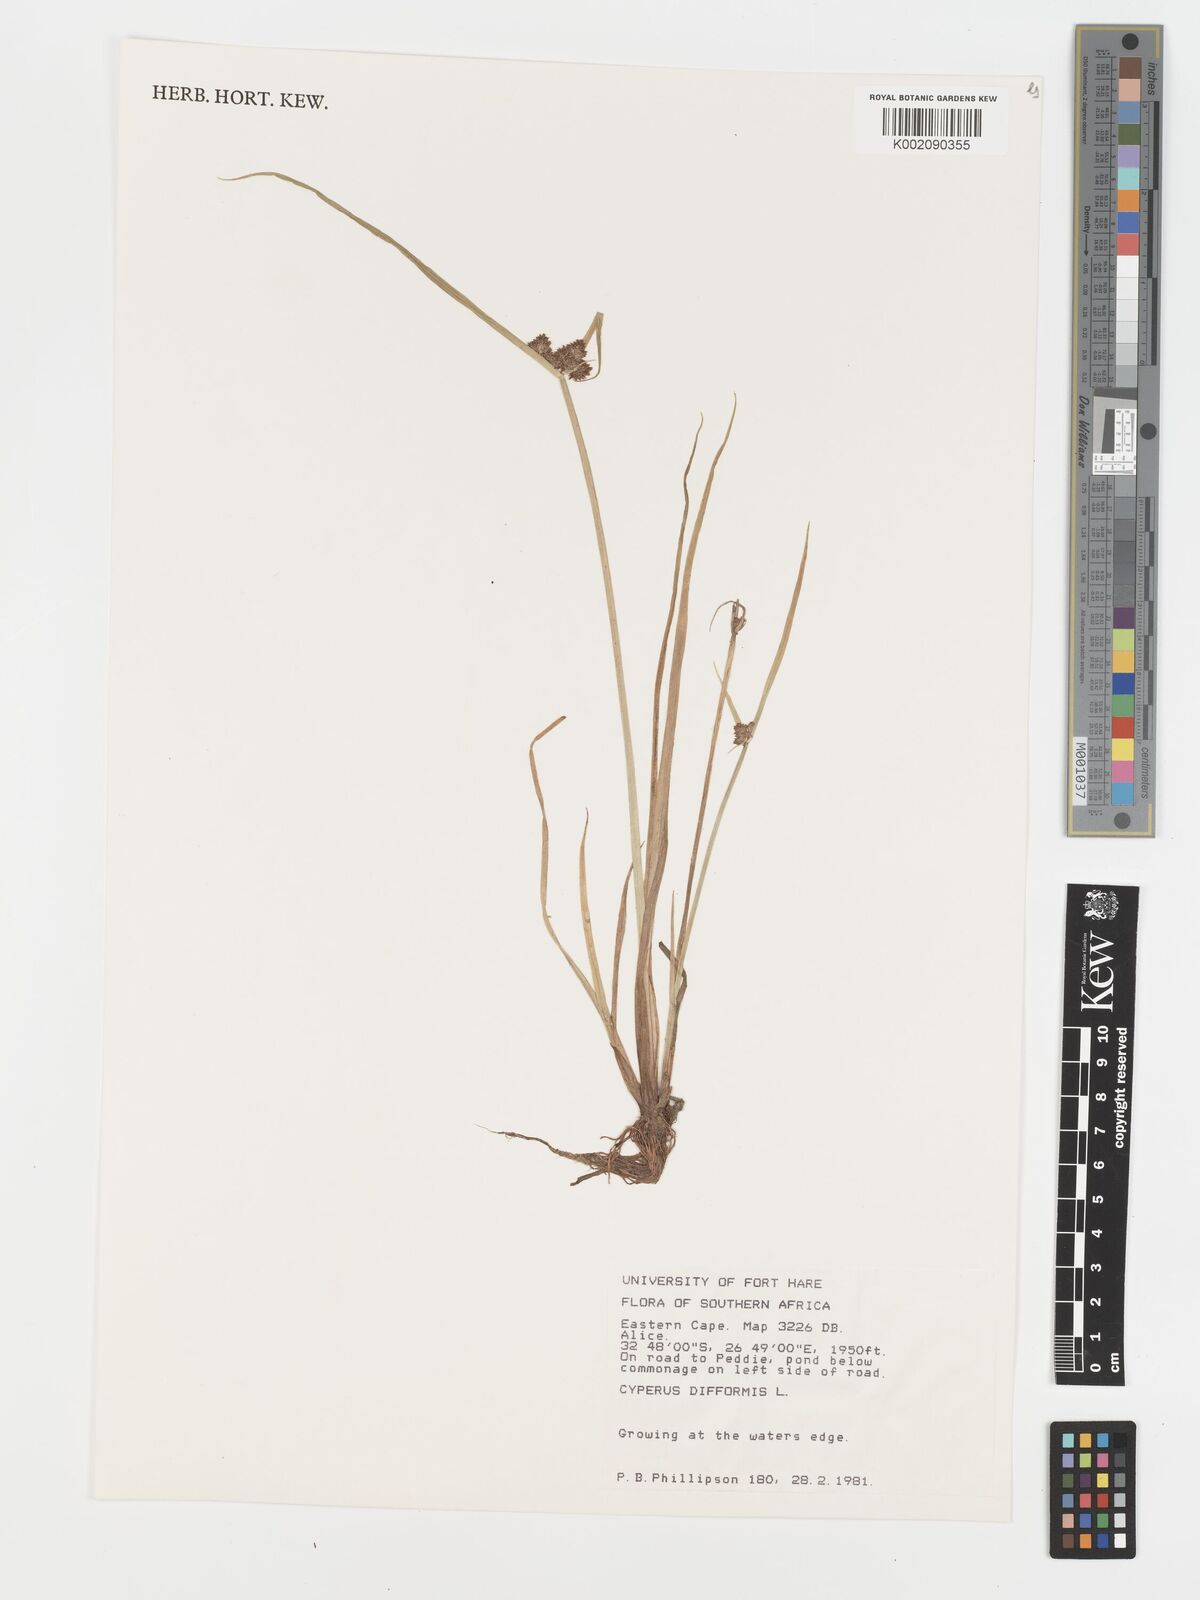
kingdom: Plantae
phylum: Tracheophyta
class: Liliopsida
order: Poales
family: Cyperaceae
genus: Cyperus
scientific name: Cyperus difformis
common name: Variable flatsedge
